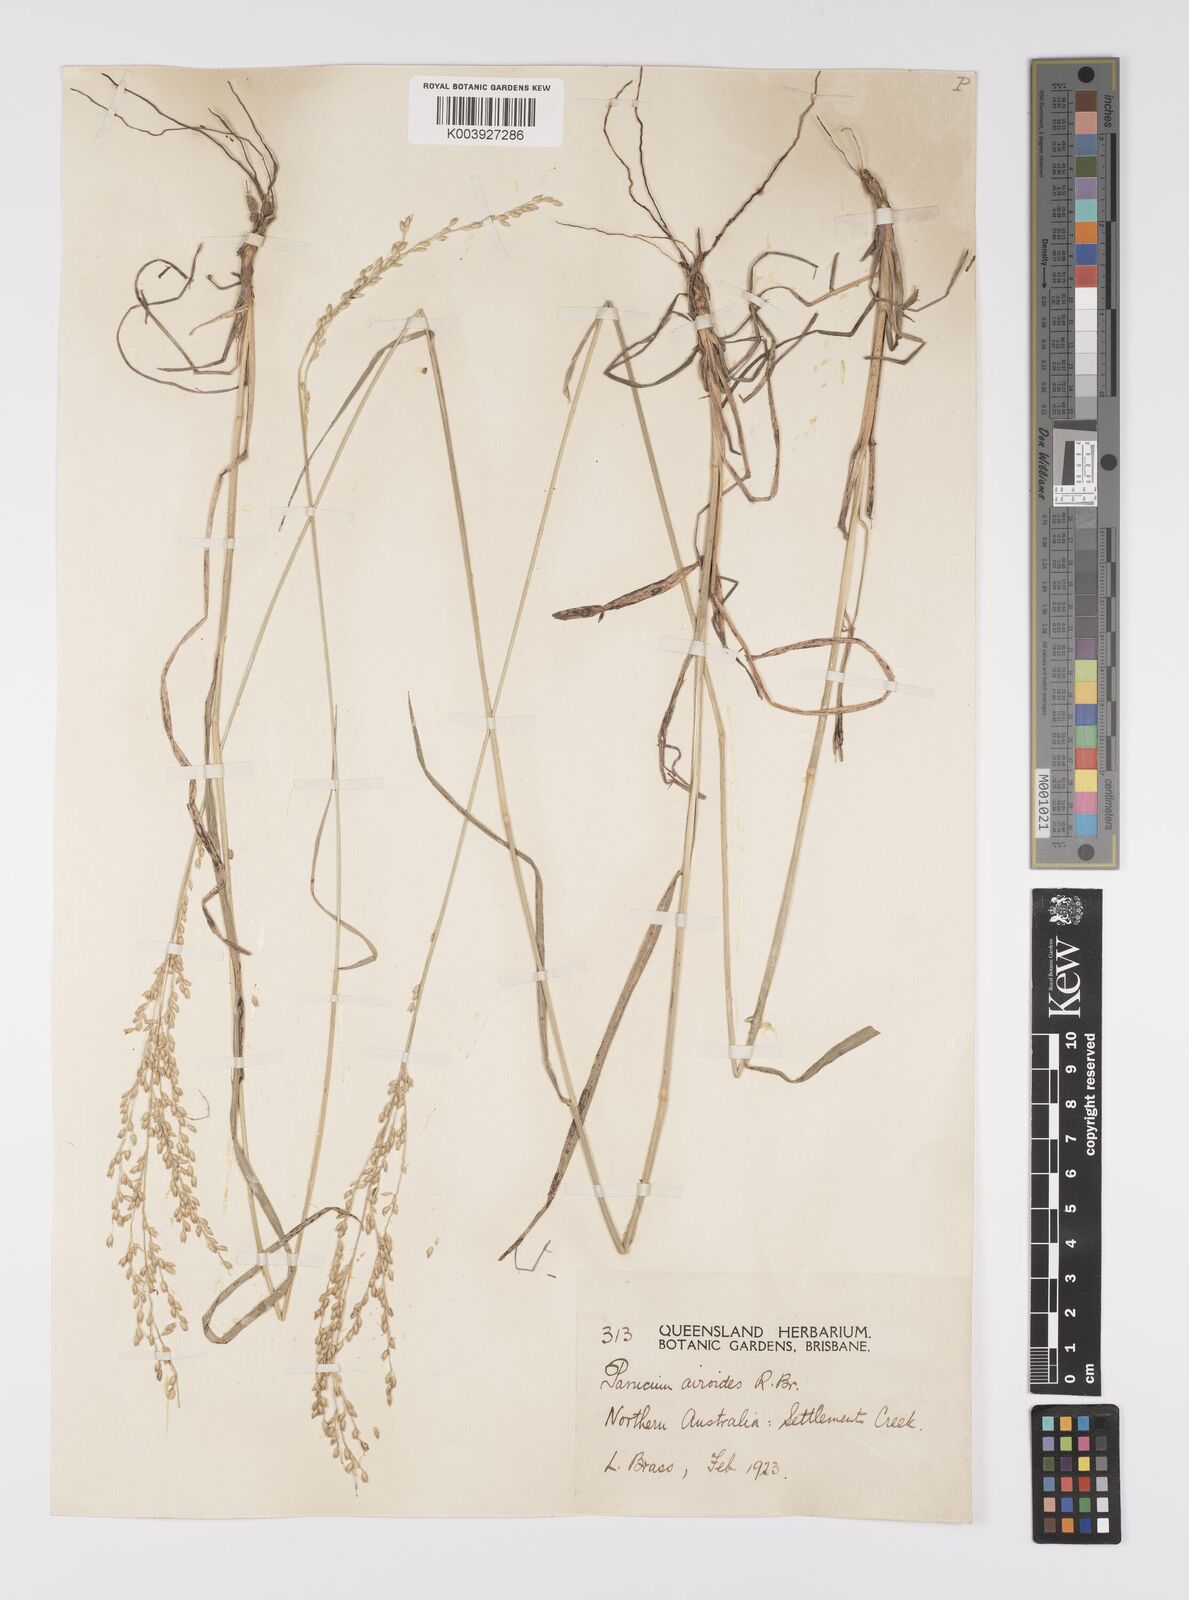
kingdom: Plantae
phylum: Tracheophyta
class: Liliopsida
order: Poales
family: Poaceae
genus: Whiteochloa
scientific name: Whiteochloa airoides
